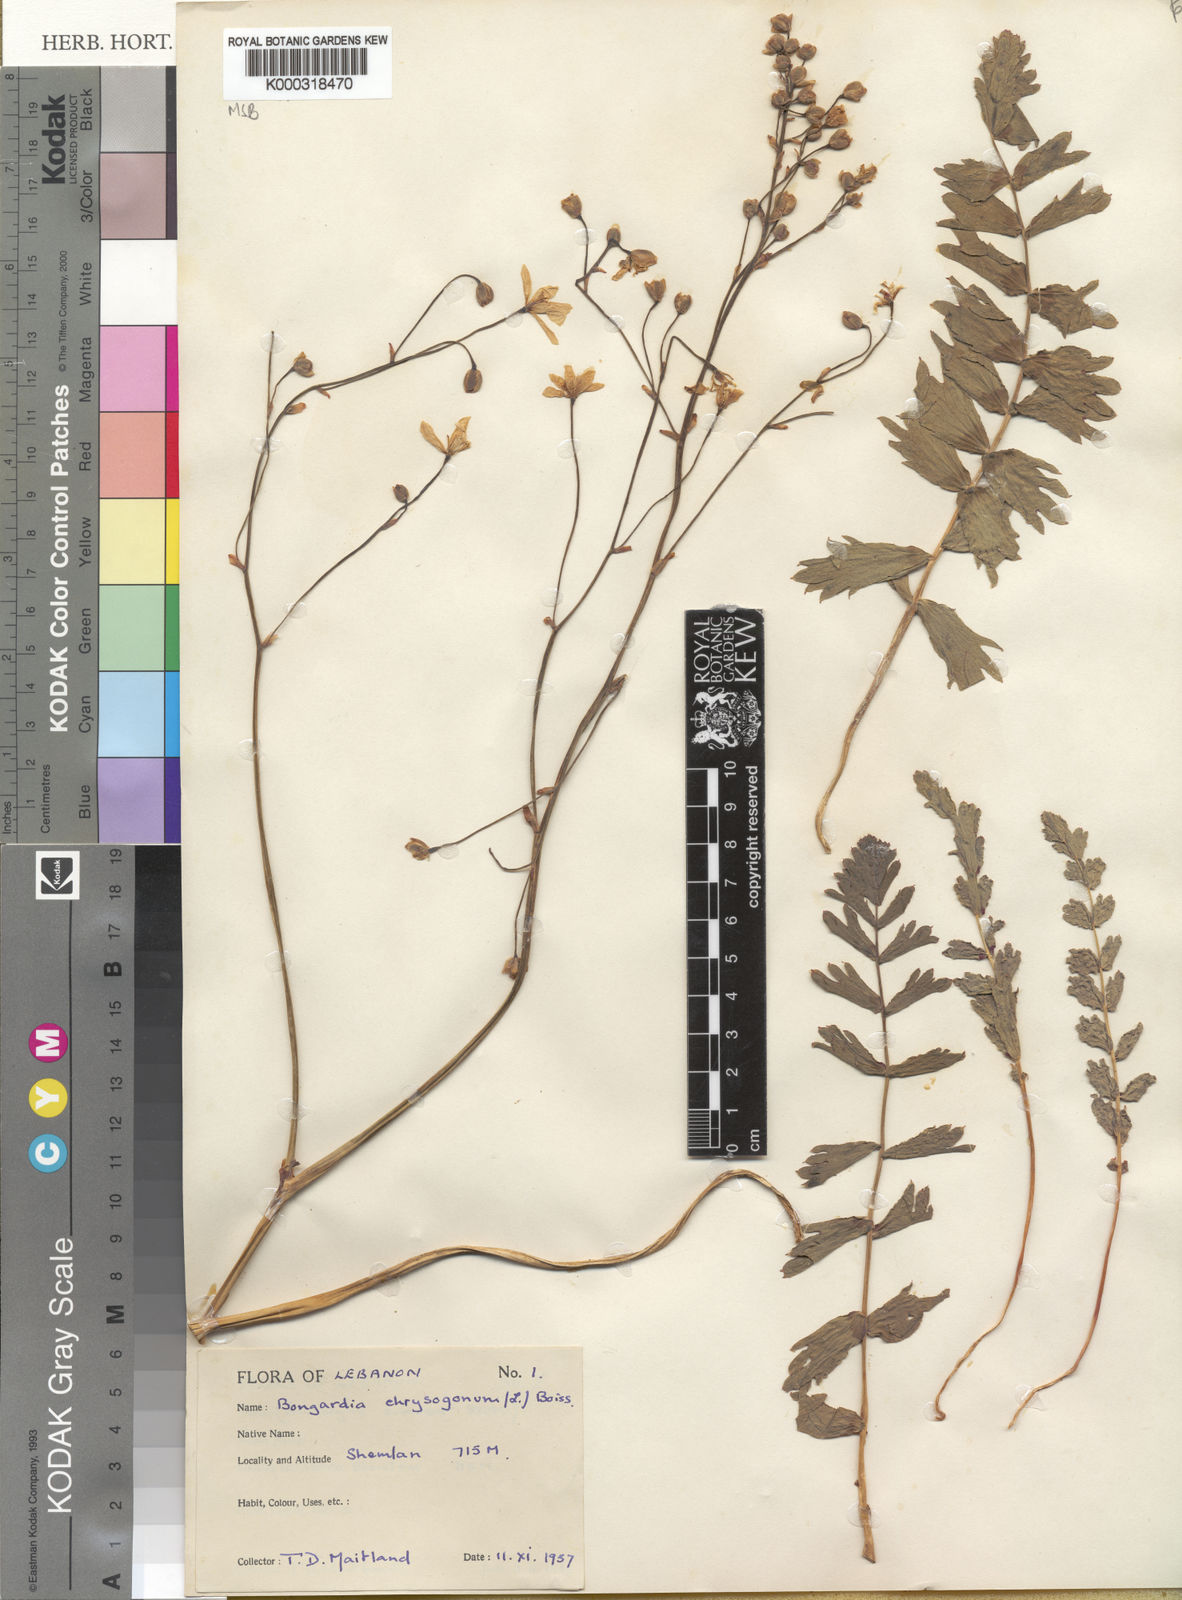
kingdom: Plantae
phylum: Tracheophyta
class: Magnoliopsida
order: Ranunculales
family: Berberidaceae
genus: Bongardia
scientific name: Bongardia chrysogonum
